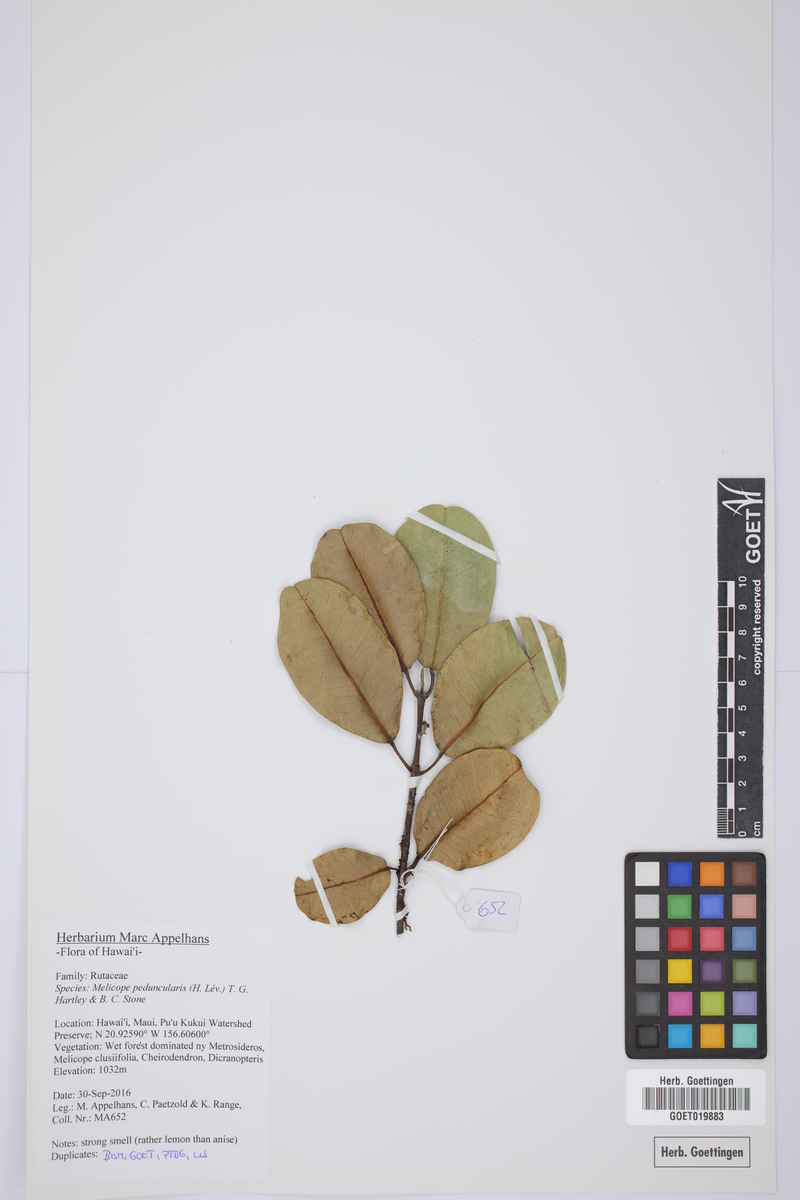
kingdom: Plantae
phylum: Tracheophyta
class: Magnoliopsida
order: Sapindales
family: Rutaceae
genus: Melicope
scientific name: Melicope peduncularis
